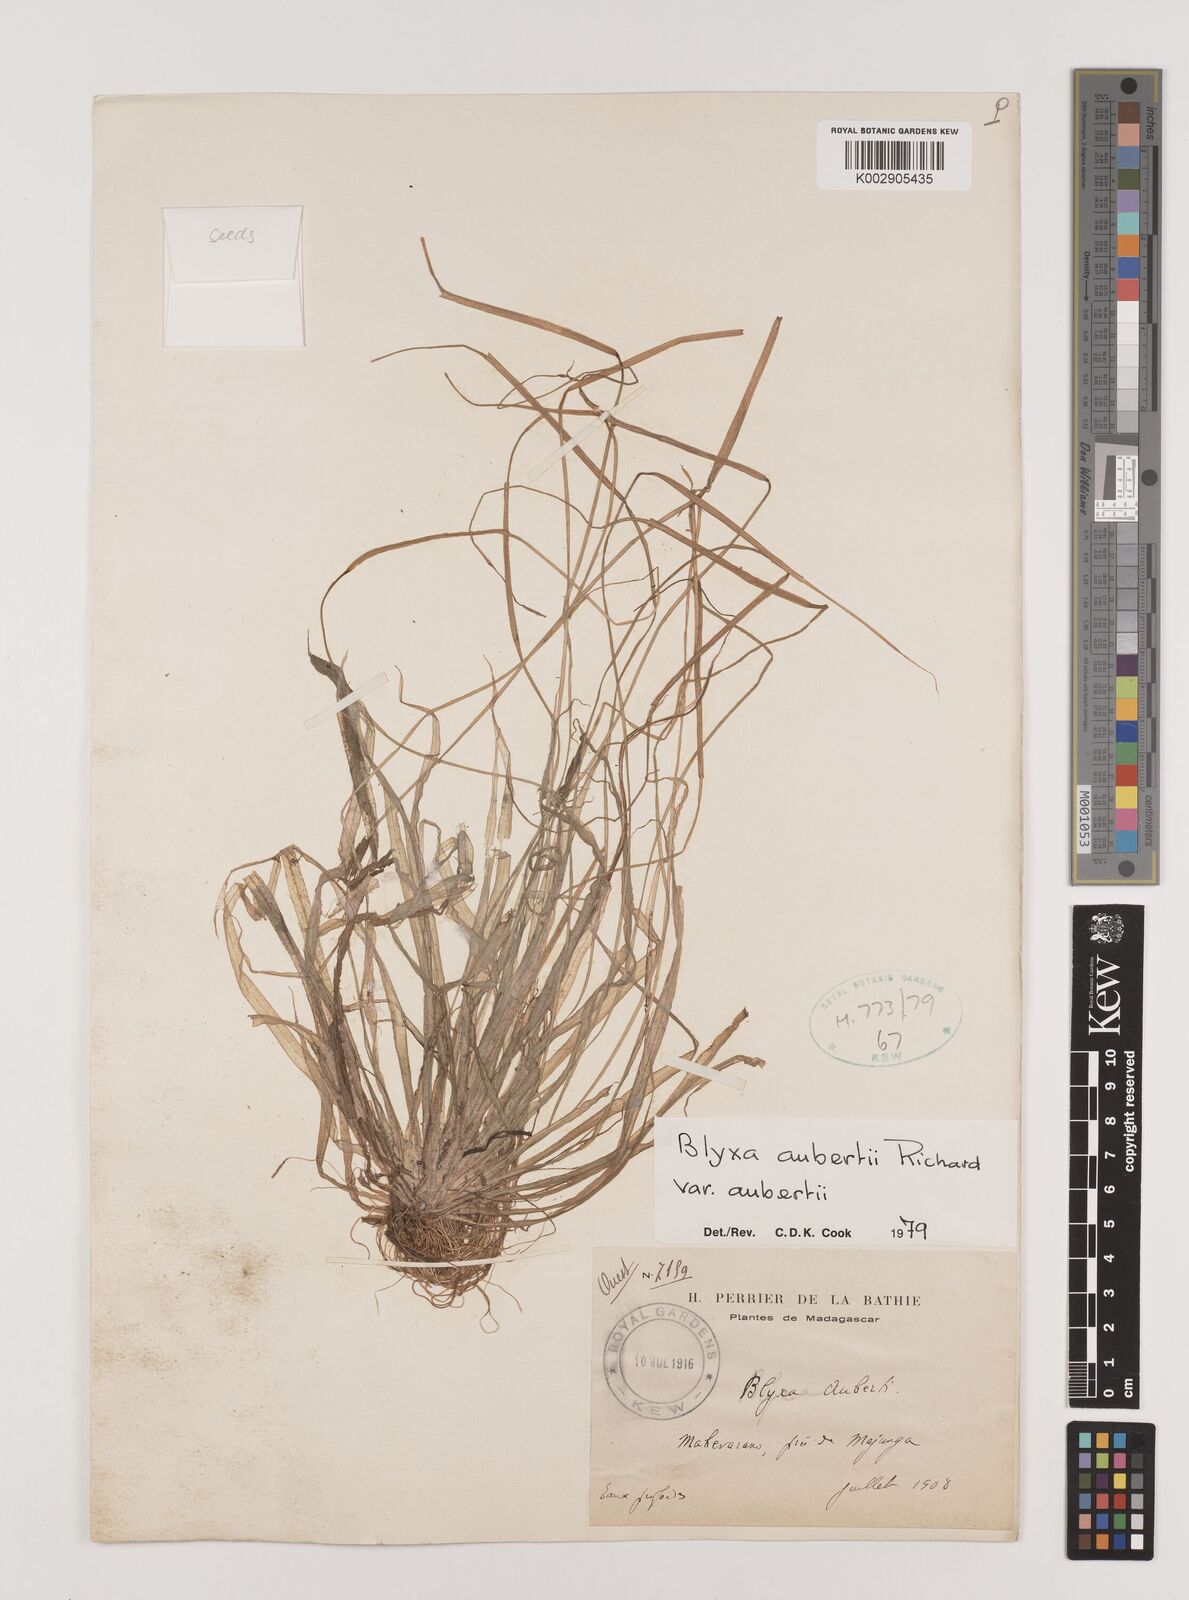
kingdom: Plantae
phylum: Tracheophyta
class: Liliopsida
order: Alismatales
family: Hydrocharitaceae
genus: Blyxa
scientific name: Blyxa aubertii
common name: Roundfruit blyxa
